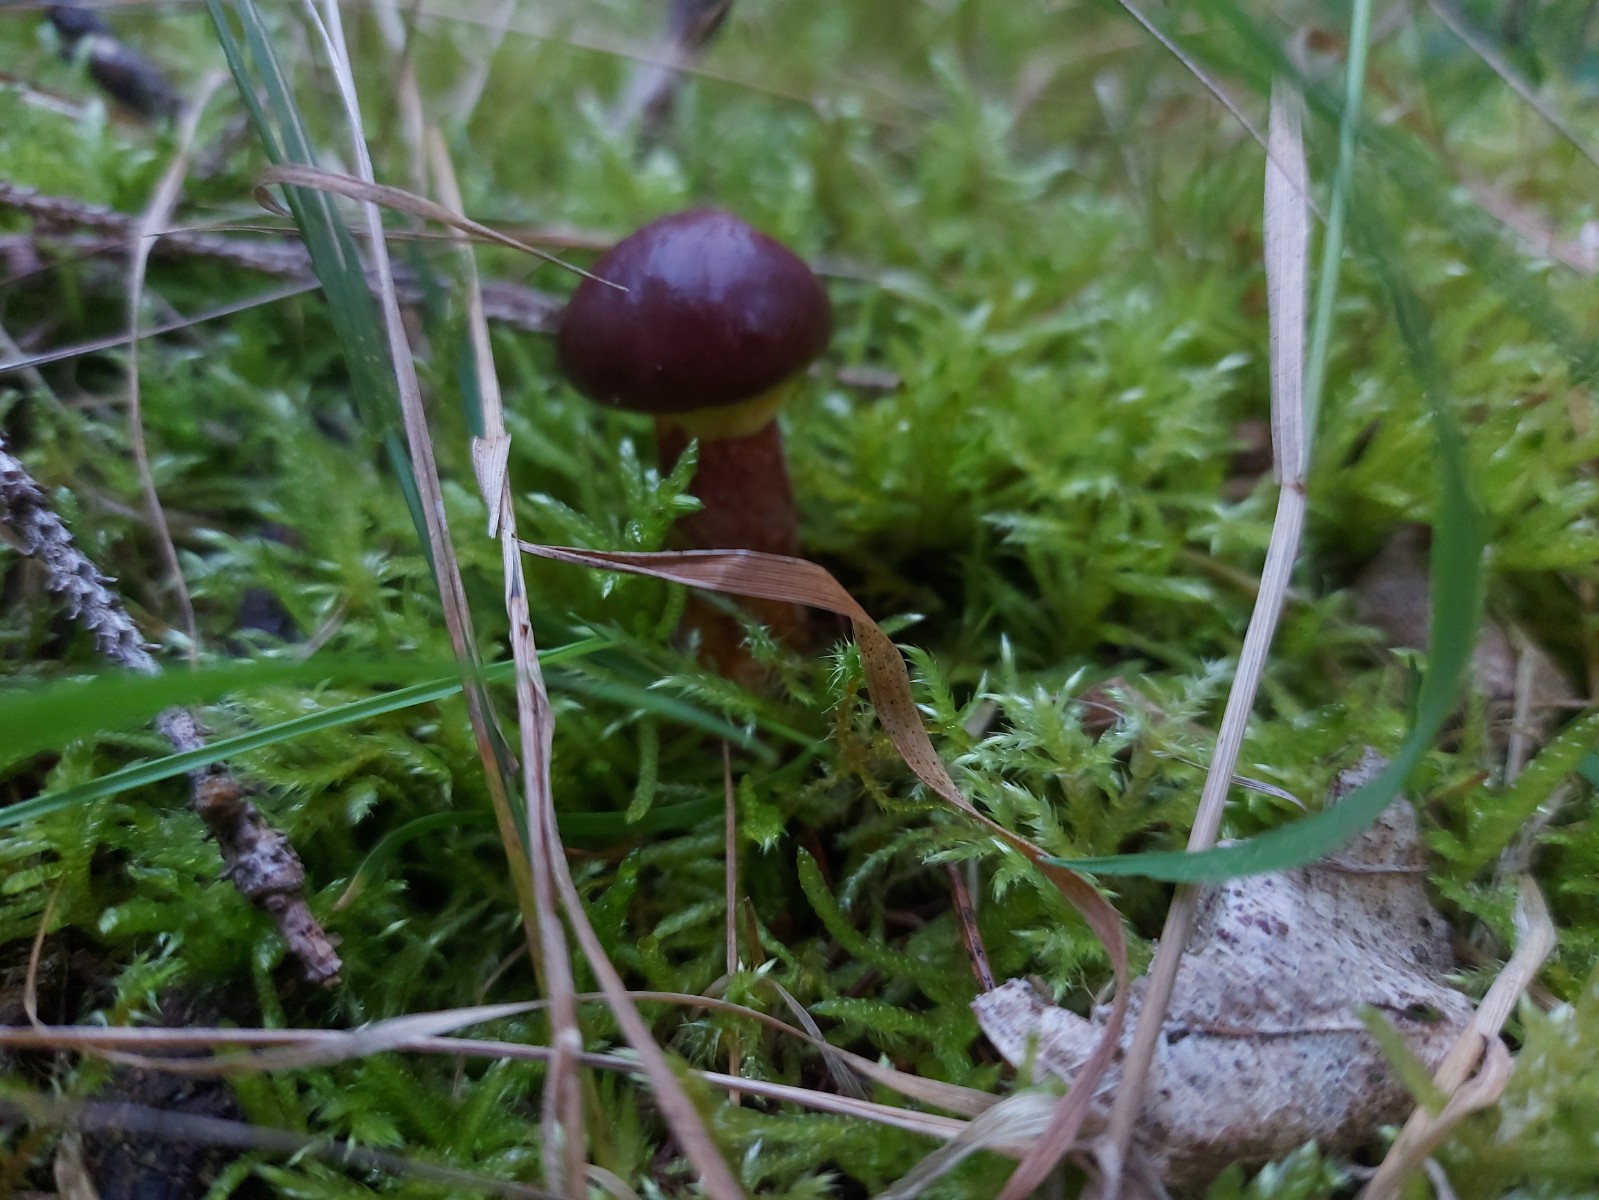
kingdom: Fungi
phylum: Basidiomycota
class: Agaricomycetes
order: Boletales
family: Suillaceae
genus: Suillus
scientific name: Suillus grevillei
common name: Larch bolete
